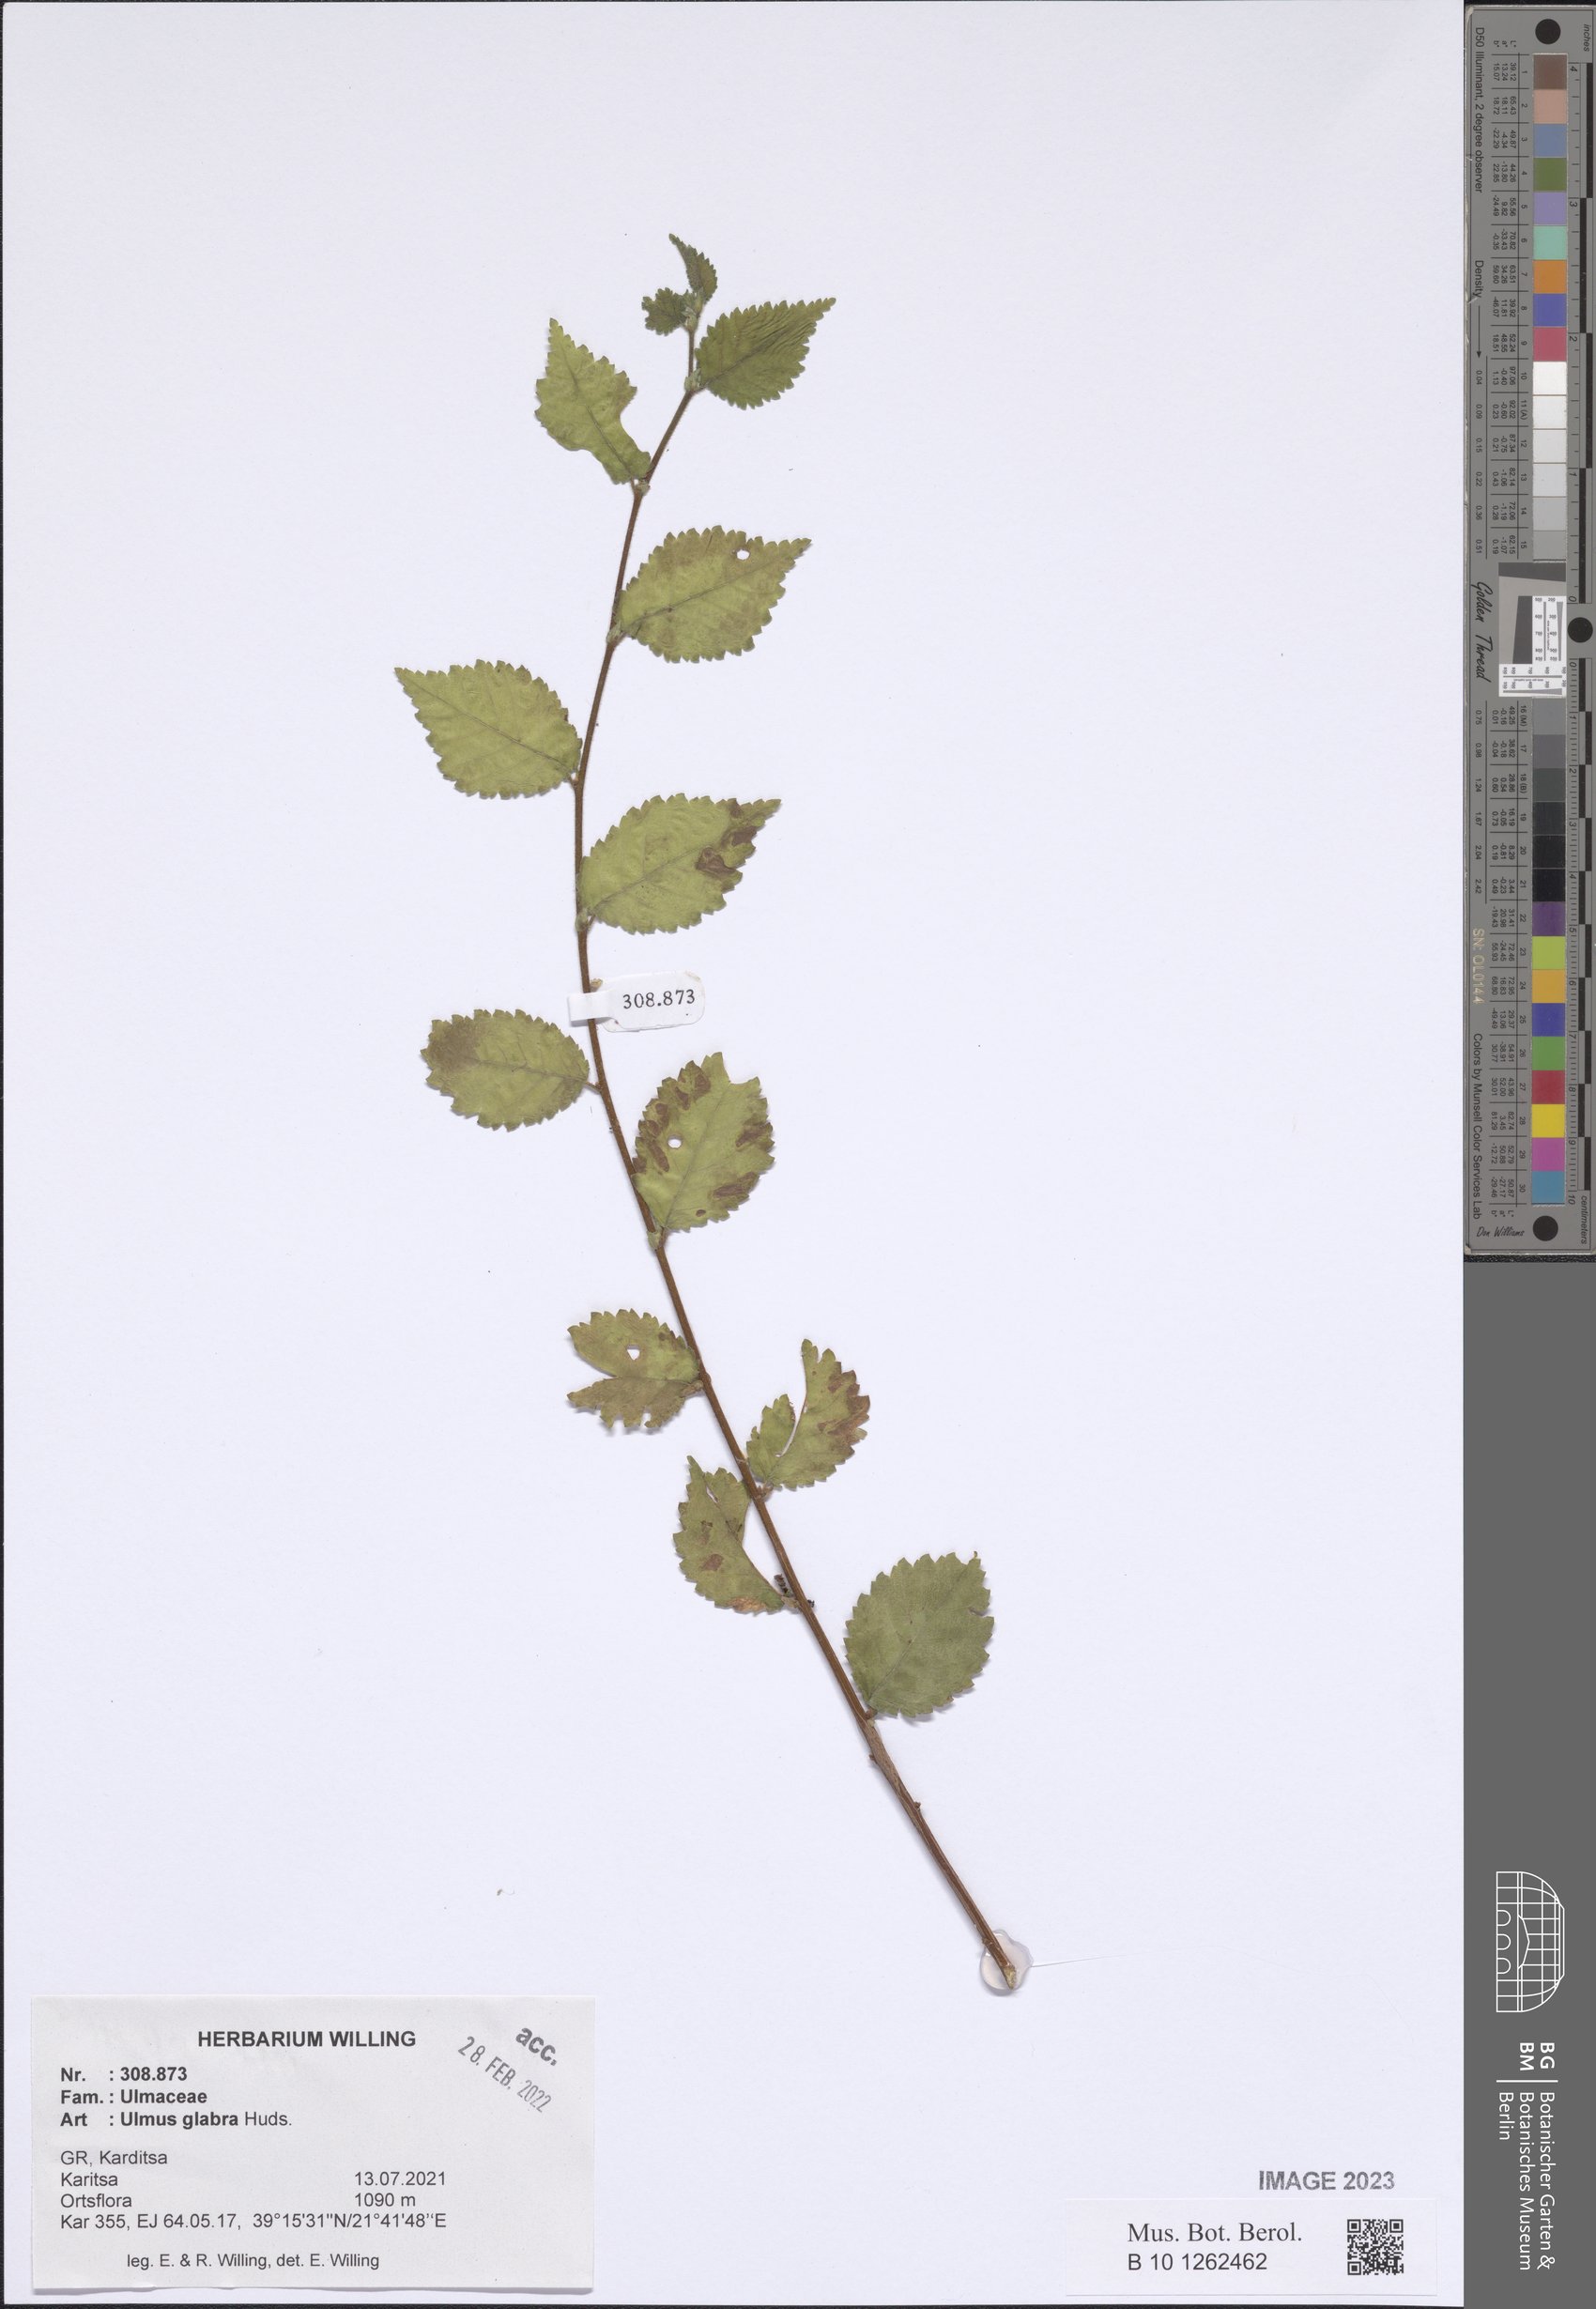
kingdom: Plantae
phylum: Tracheophyta
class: Magnoliopsida
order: Rosales
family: Ulmaceae
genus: Ulmus
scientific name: Ulmus glabra
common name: Wych elm
